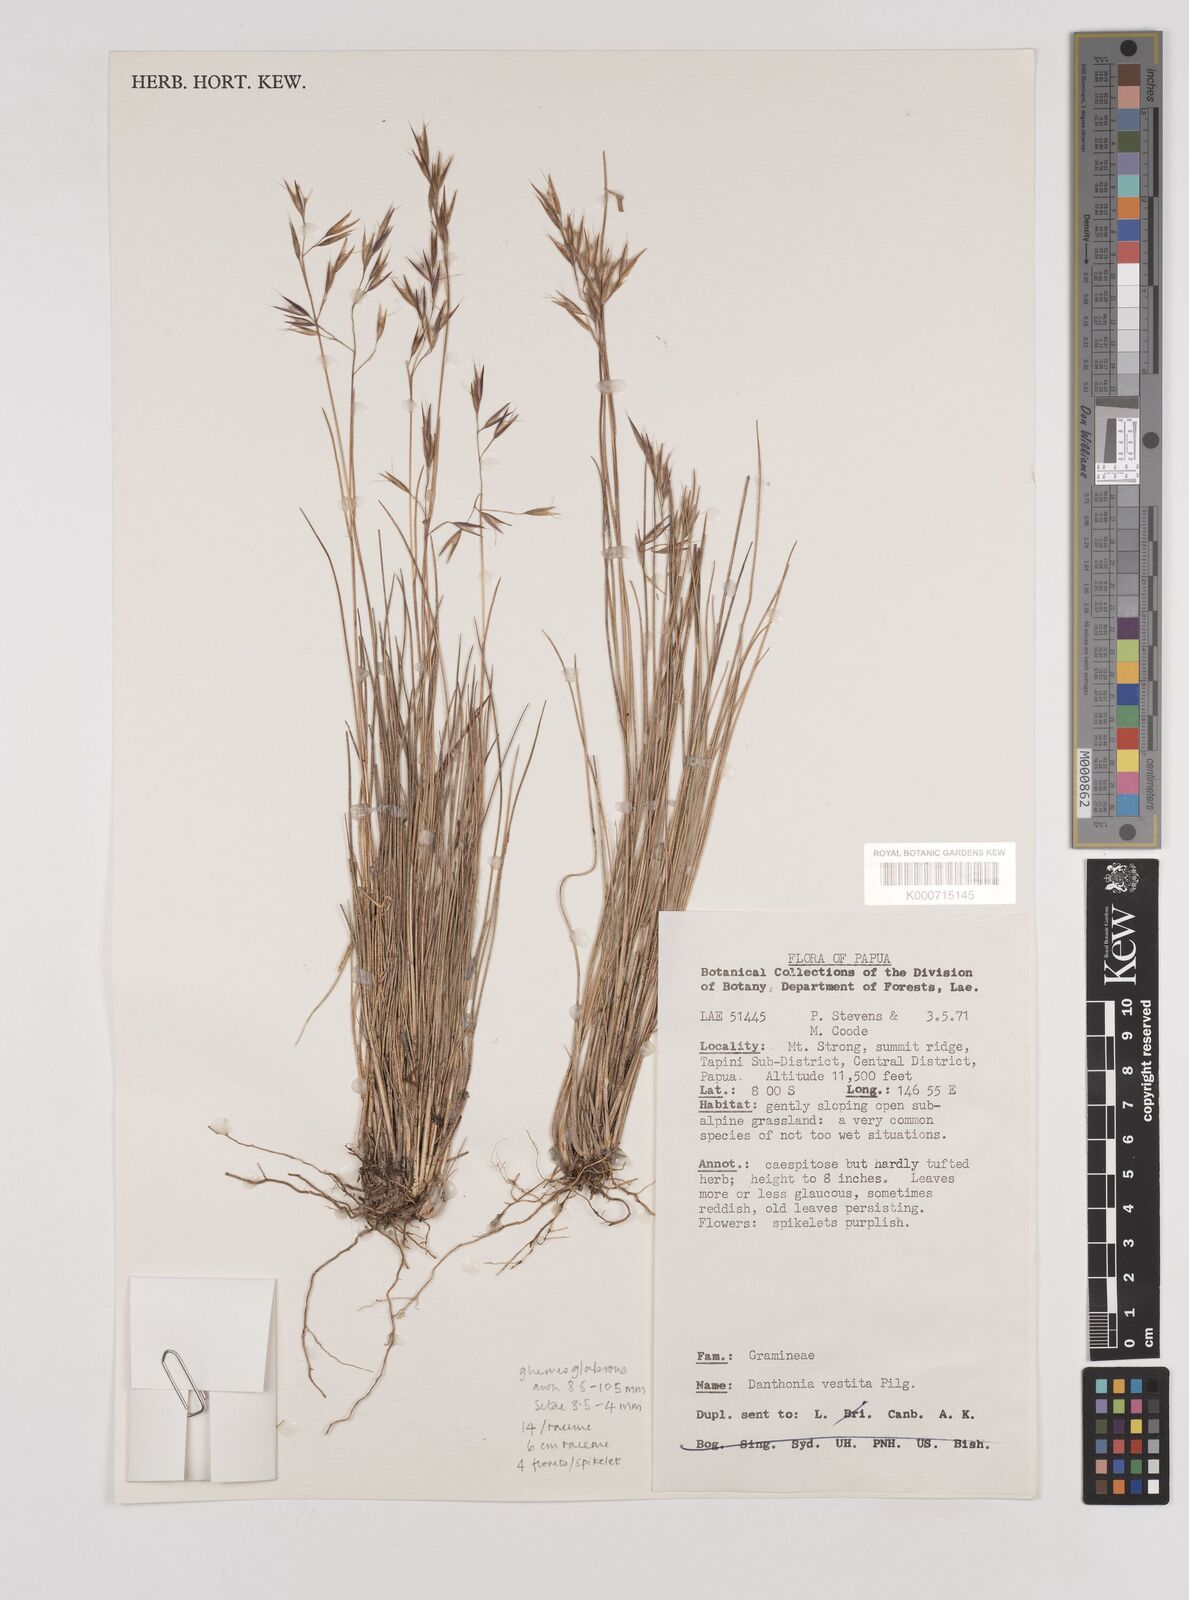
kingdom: Plantae
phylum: Tracheophyta
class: Liliopsida
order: Poales
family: Poaceae
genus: Rytidosperma
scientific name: Rytidosperma vestitum
